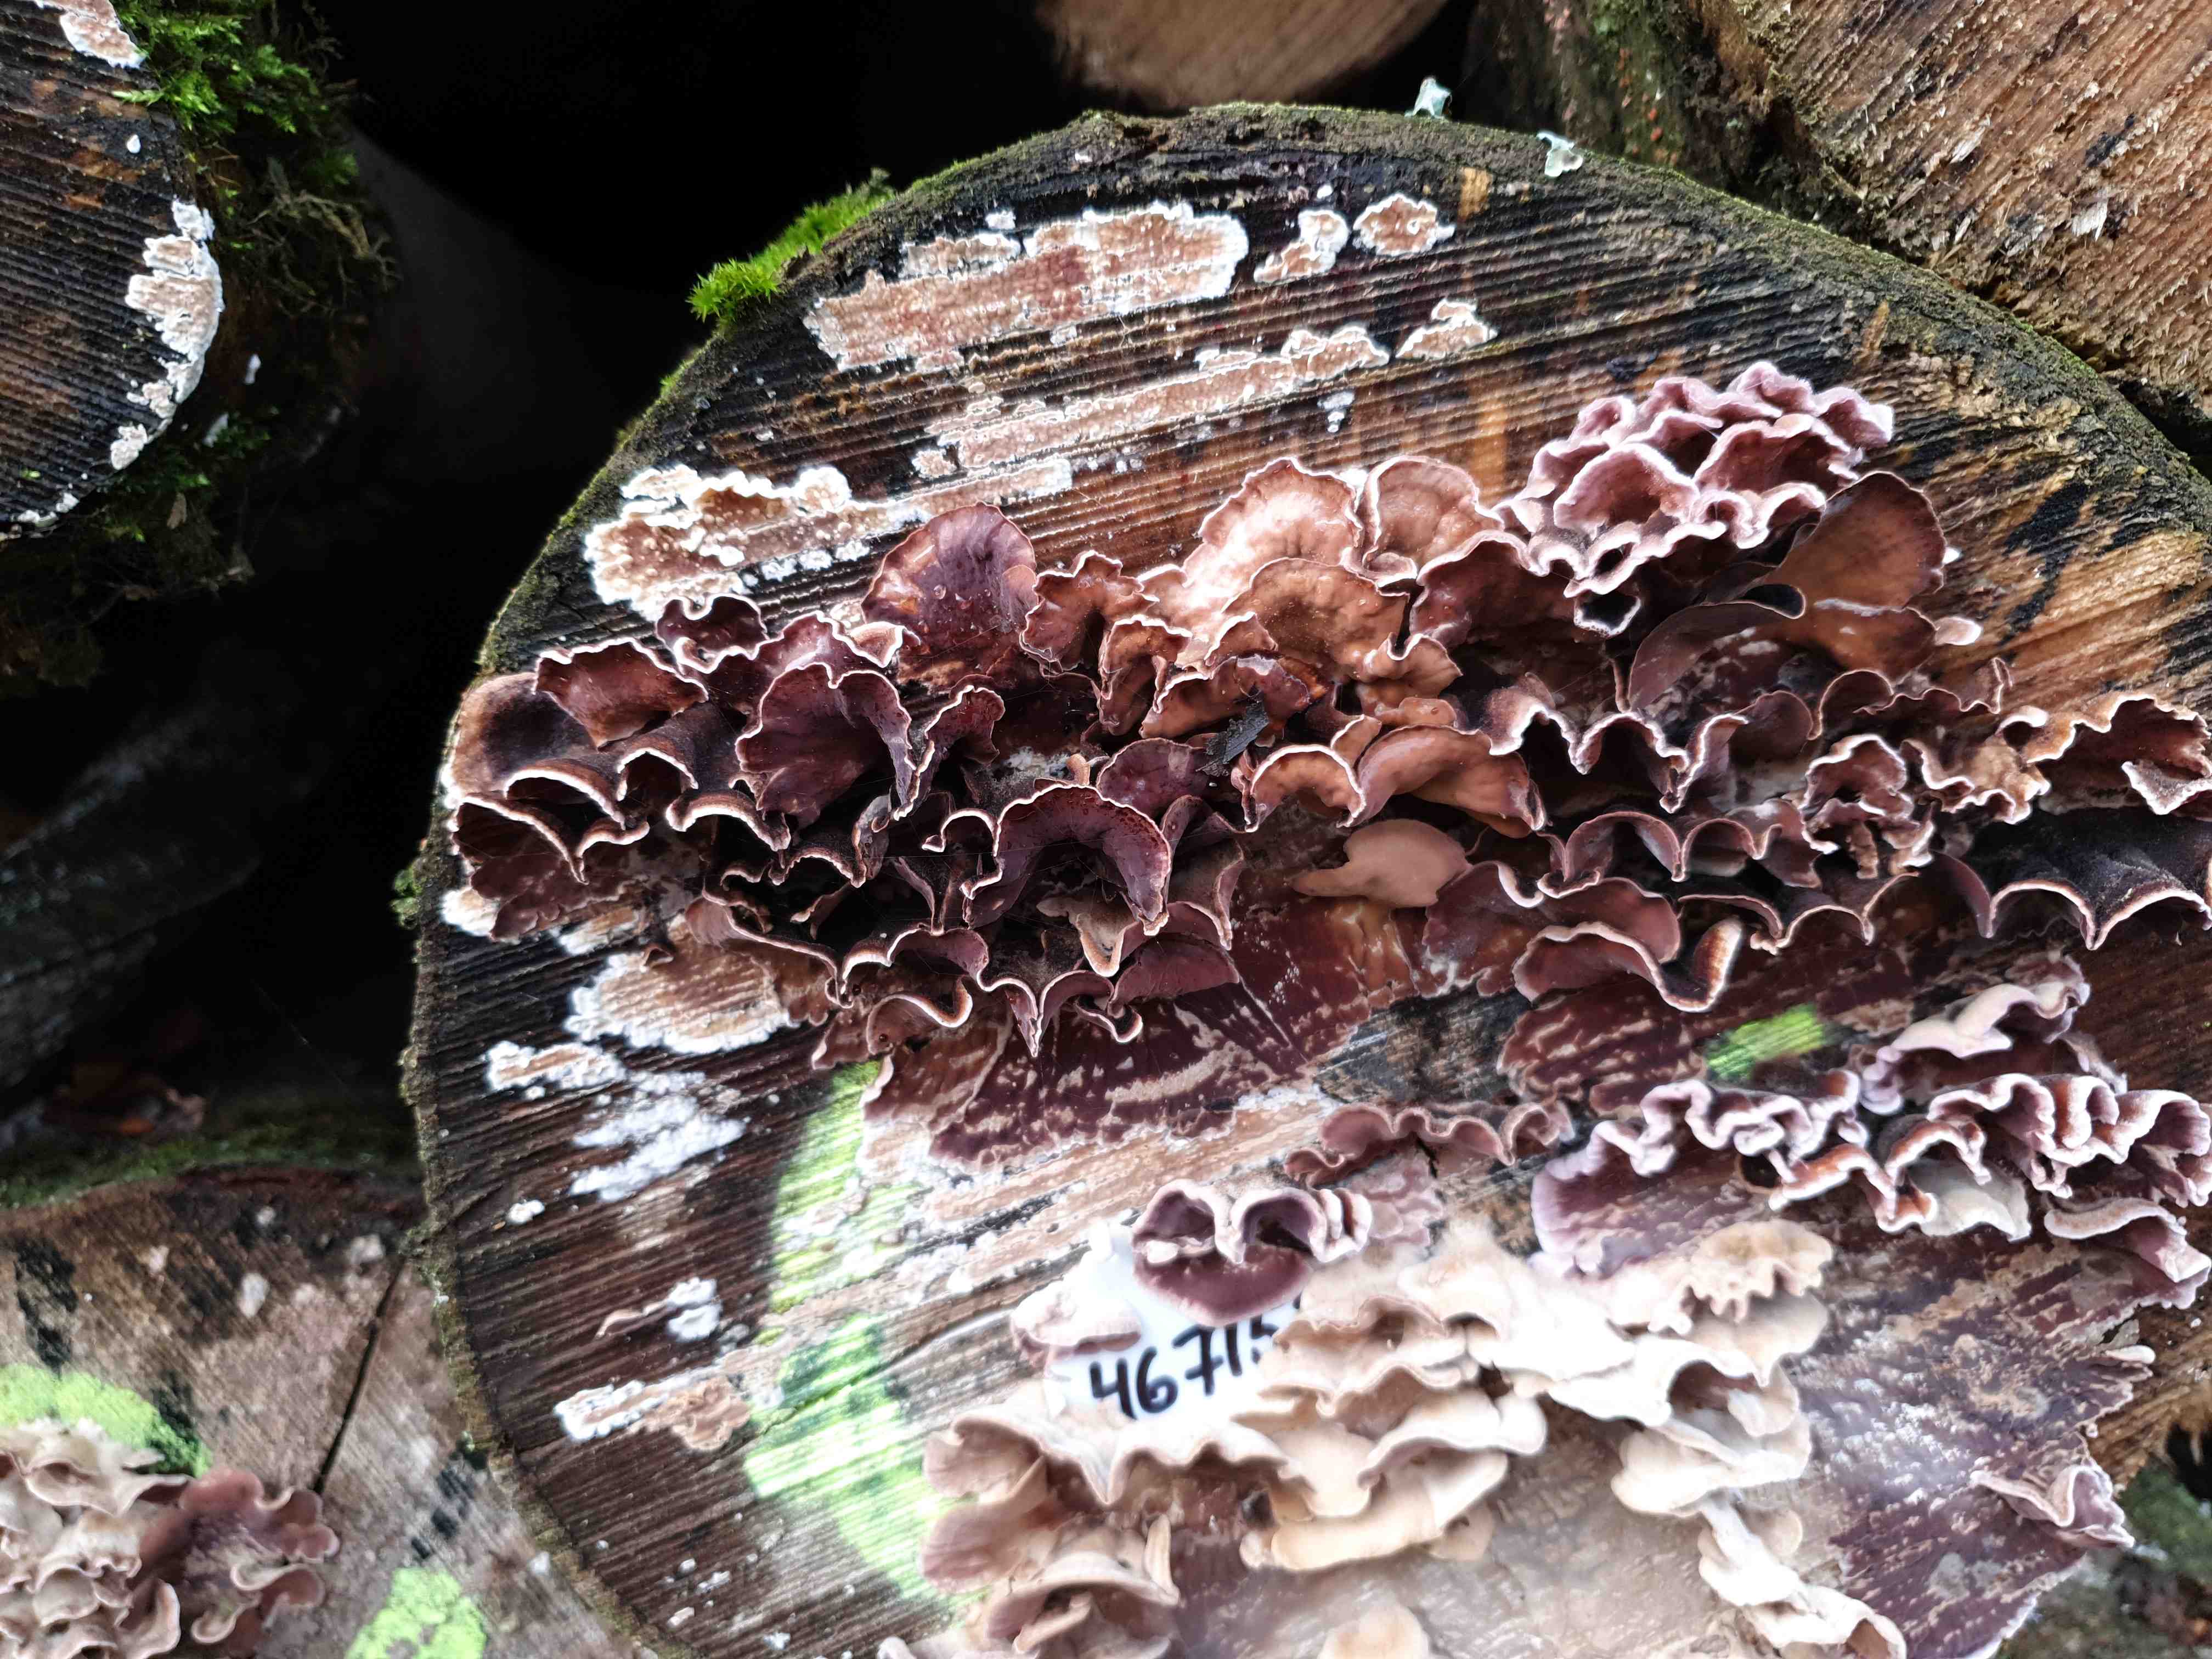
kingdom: Fungi
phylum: Basidiomycota
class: Agaricomycetes
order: Agaricales
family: Cyphellaceae
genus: Chondrostereum
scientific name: Chondrostereum purpureum
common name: purpurlædersvamp
